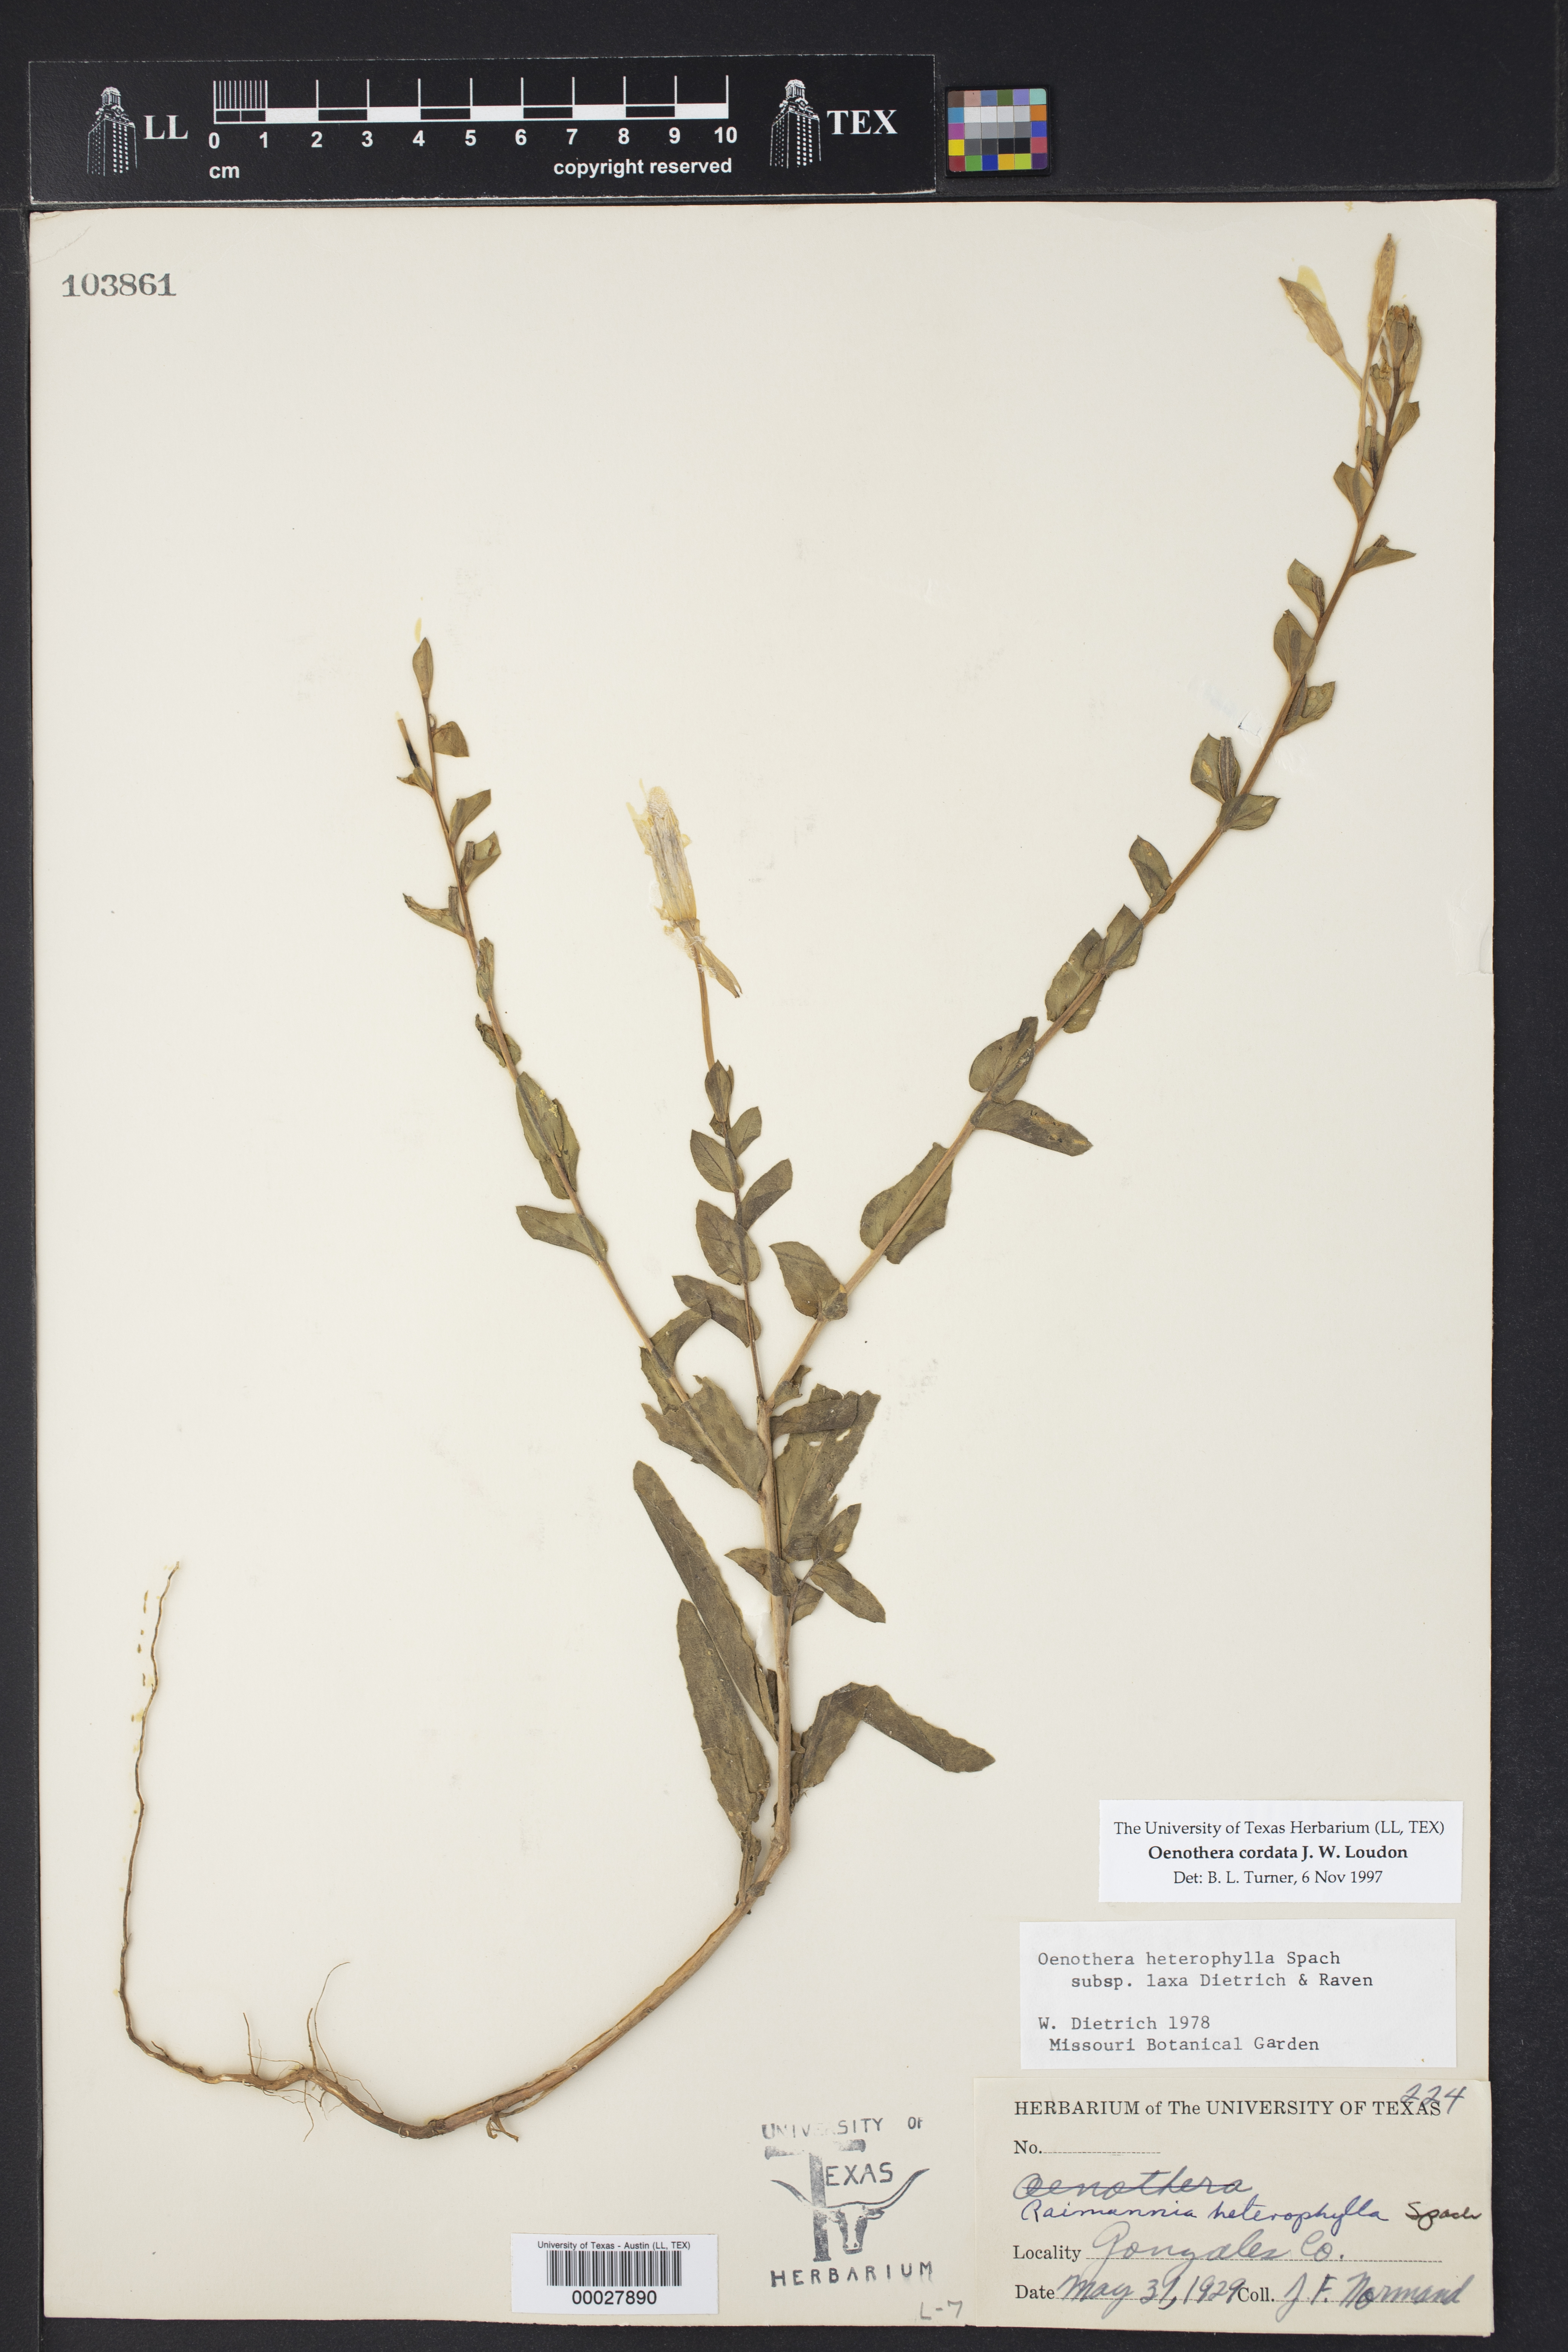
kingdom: Plantae
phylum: Tracheophyta
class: Magnoliopsida
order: Myrtales
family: Onagraceae
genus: Oenothera
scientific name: Oenothera heterophylla
